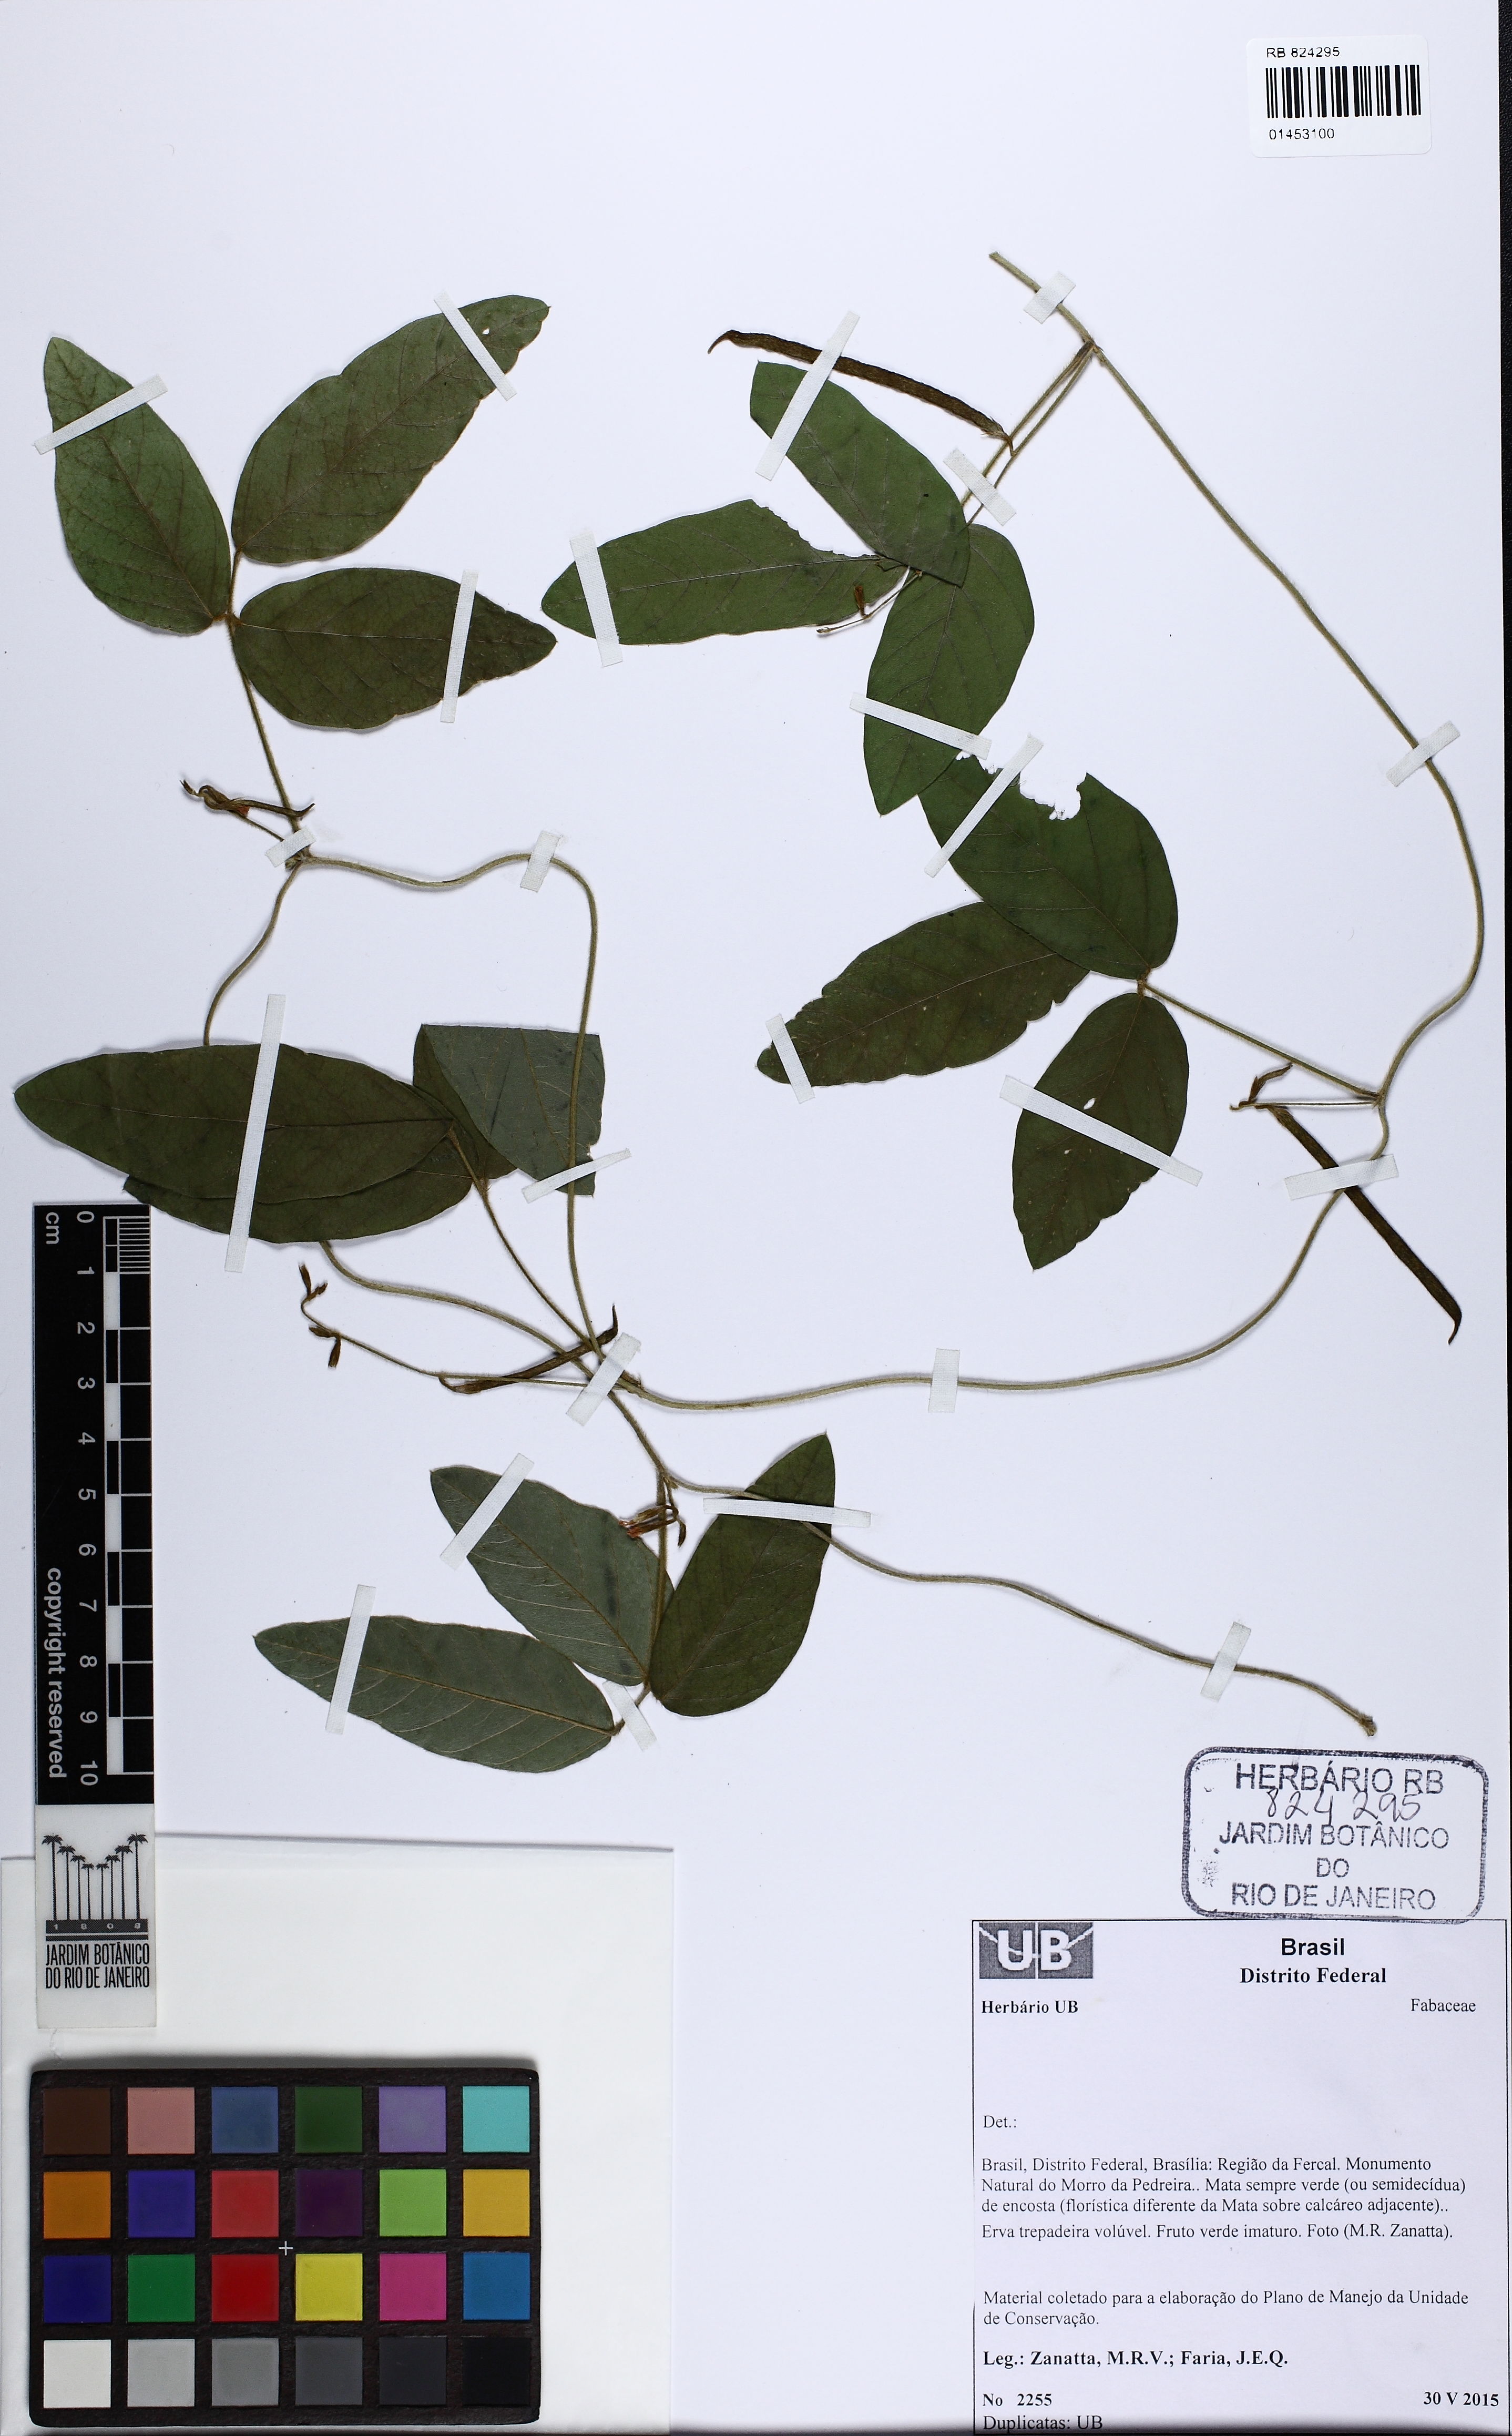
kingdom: Plantae
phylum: Tracheophyta
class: Magnoliopsida
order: Fabales
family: Fabaceae
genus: Teramnus
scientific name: Teramnus
